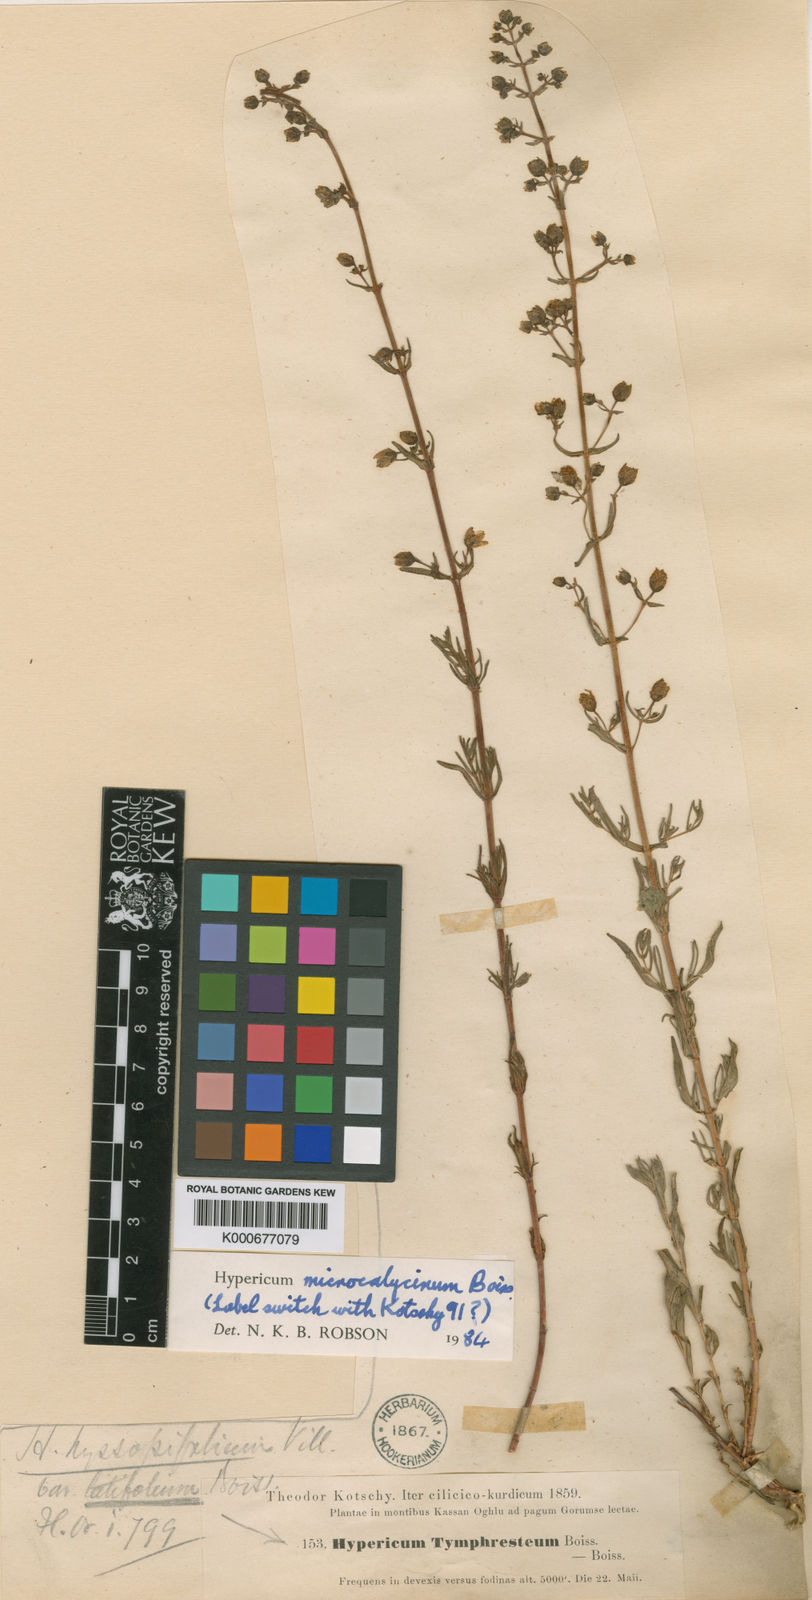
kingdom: Plantae
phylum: Tracheophyta
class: Magnoliopsida
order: Malpighiales
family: Hypericaceae
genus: Hypericum
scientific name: Hypericum microcalycinum
